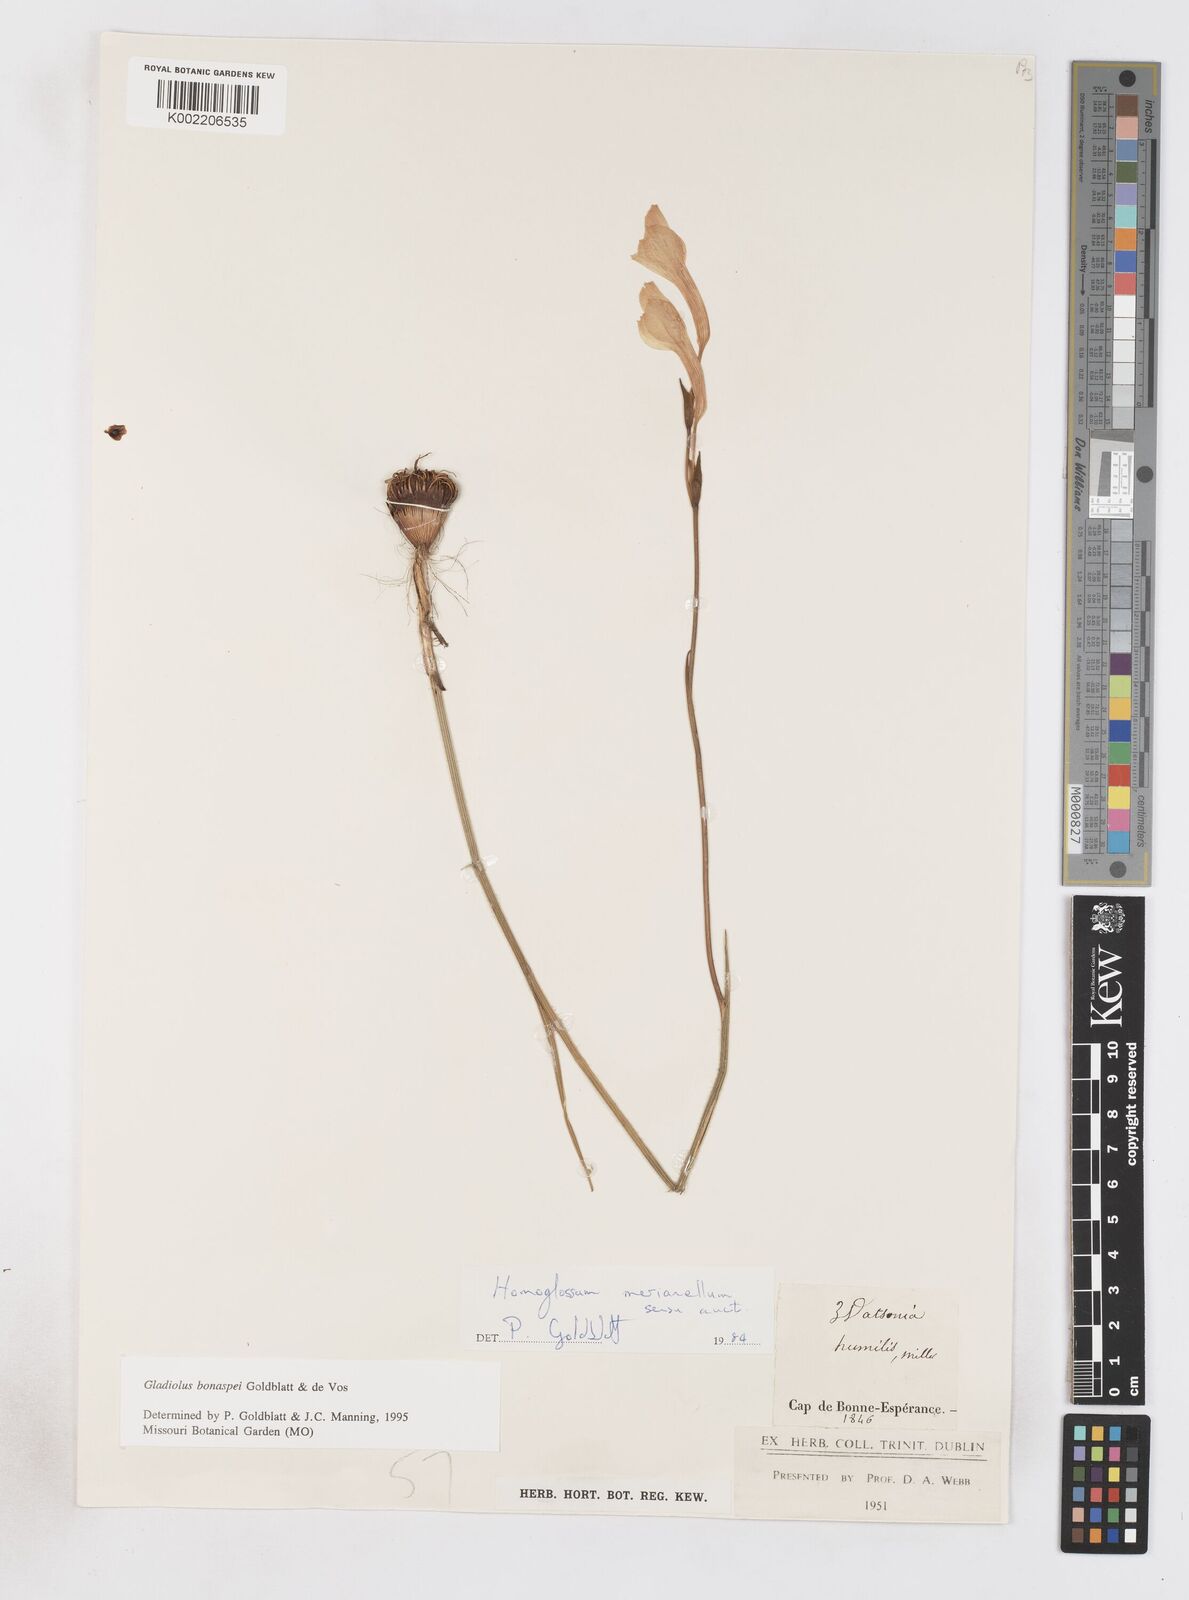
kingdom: Plantae
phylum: Tracheophyta
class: Liliopsida
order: Asparagales
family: Iridaceae
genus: Gladiolus
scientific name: Gladiolus merianellus
